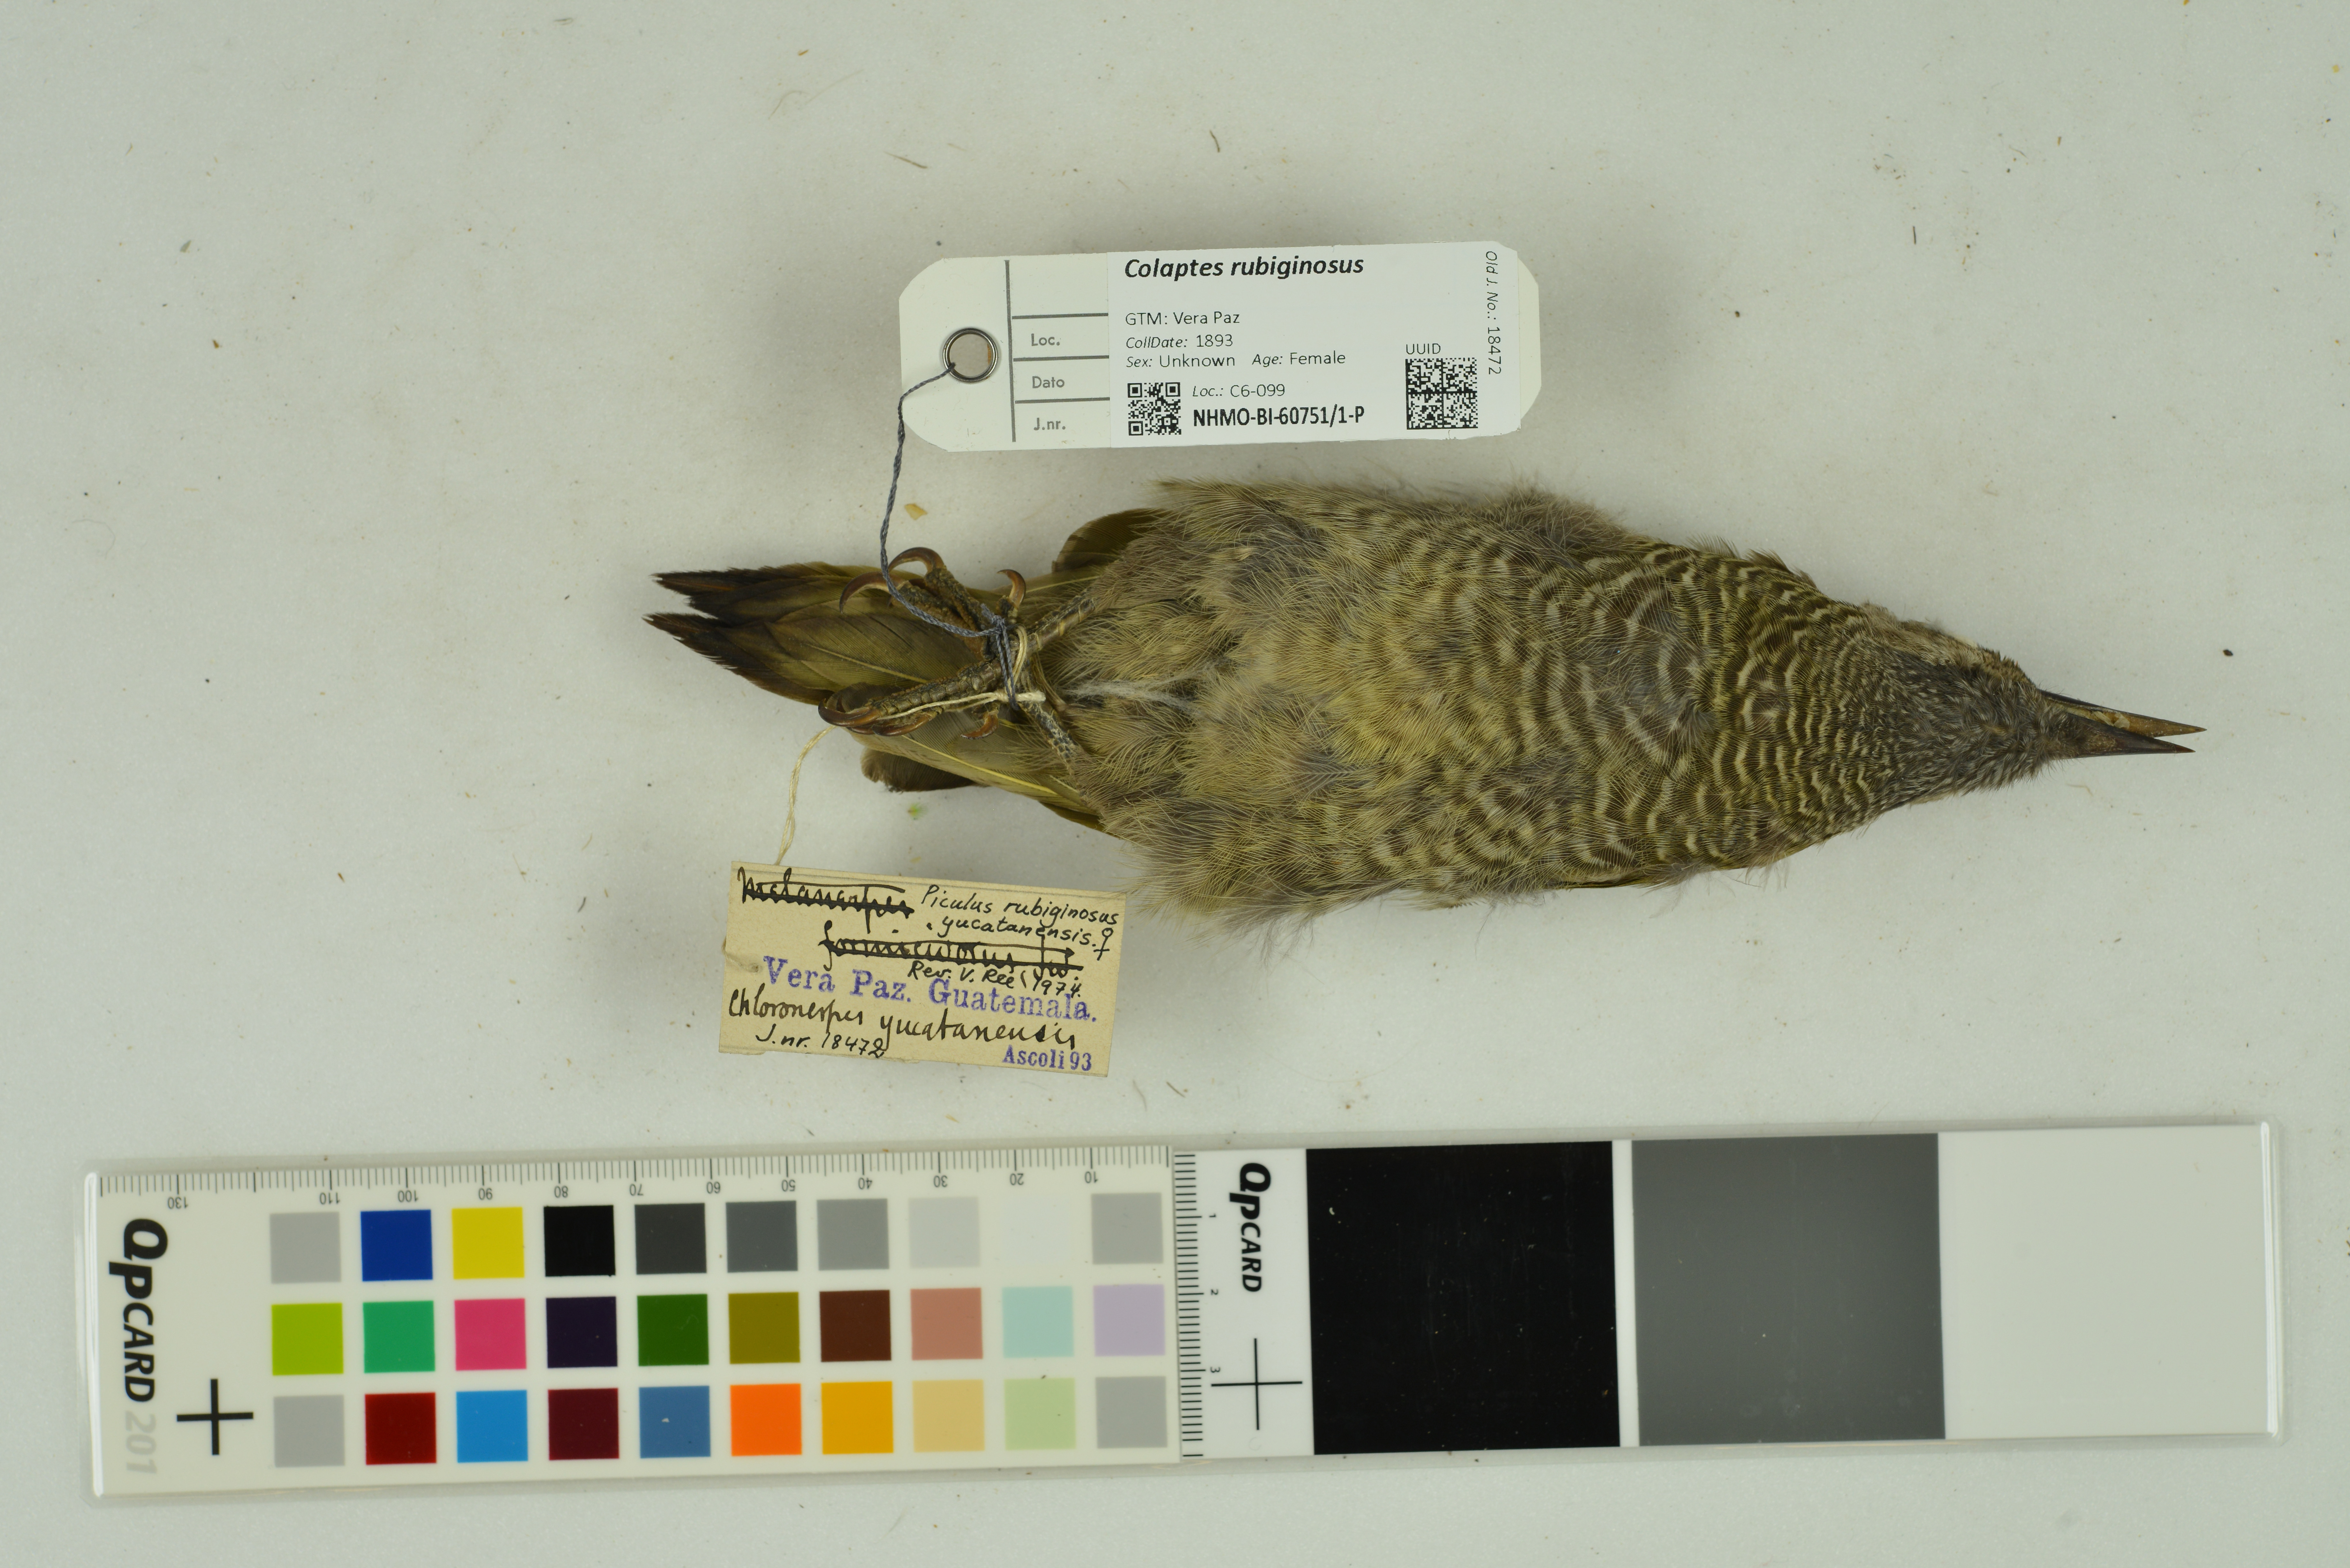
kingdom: Animalia
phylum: Chordata
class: Aves
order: Piciformes
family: Picidae
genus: Colaptes
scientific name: Colaptes rubiginosus
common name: Golden-olive woodpecker
